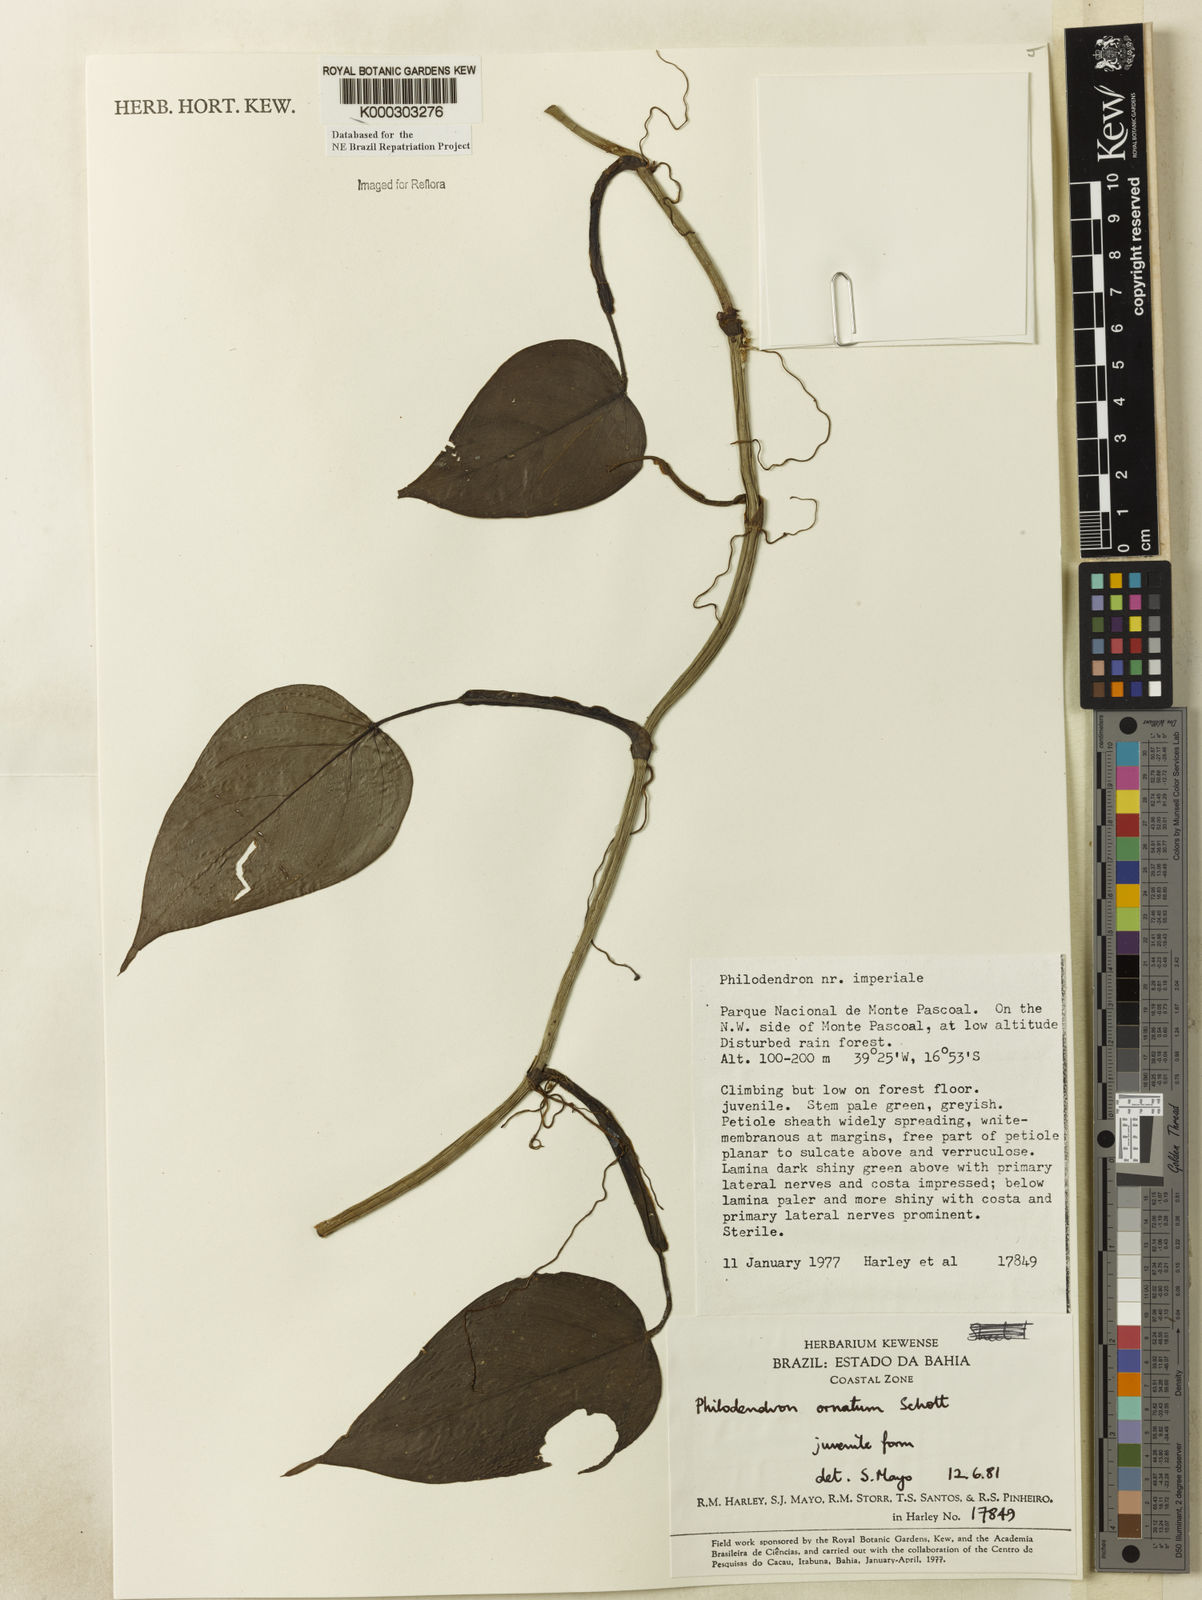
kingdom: Plantae
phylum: Tracheophyta
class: Liliopsida
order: Alismatales
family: Araceae
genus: Philodendron
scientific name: Philodendron ornatum
